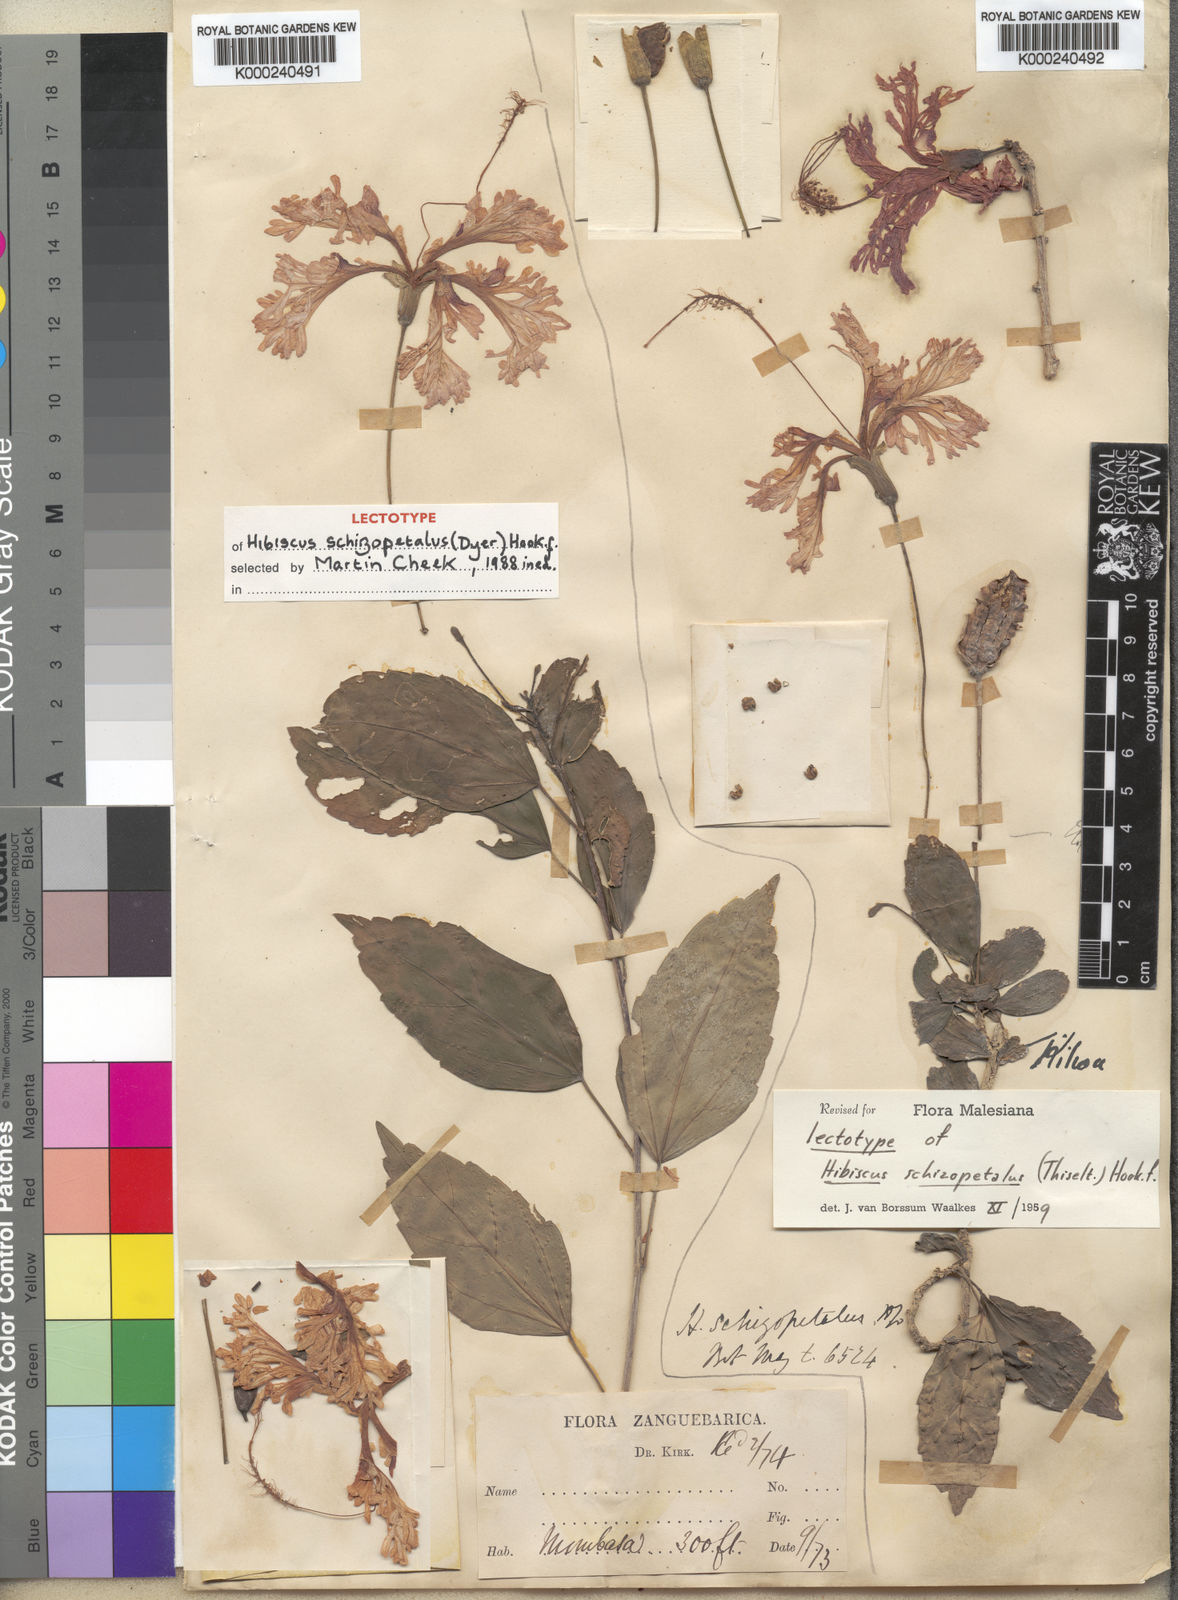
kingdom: Plantae
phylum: Tracheophyta
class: Magnoliopsida
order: Malvales
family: Malvaceae
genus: Hibiscus
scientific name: Hibiscus schizopetalus
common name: Fringed rosemallow
